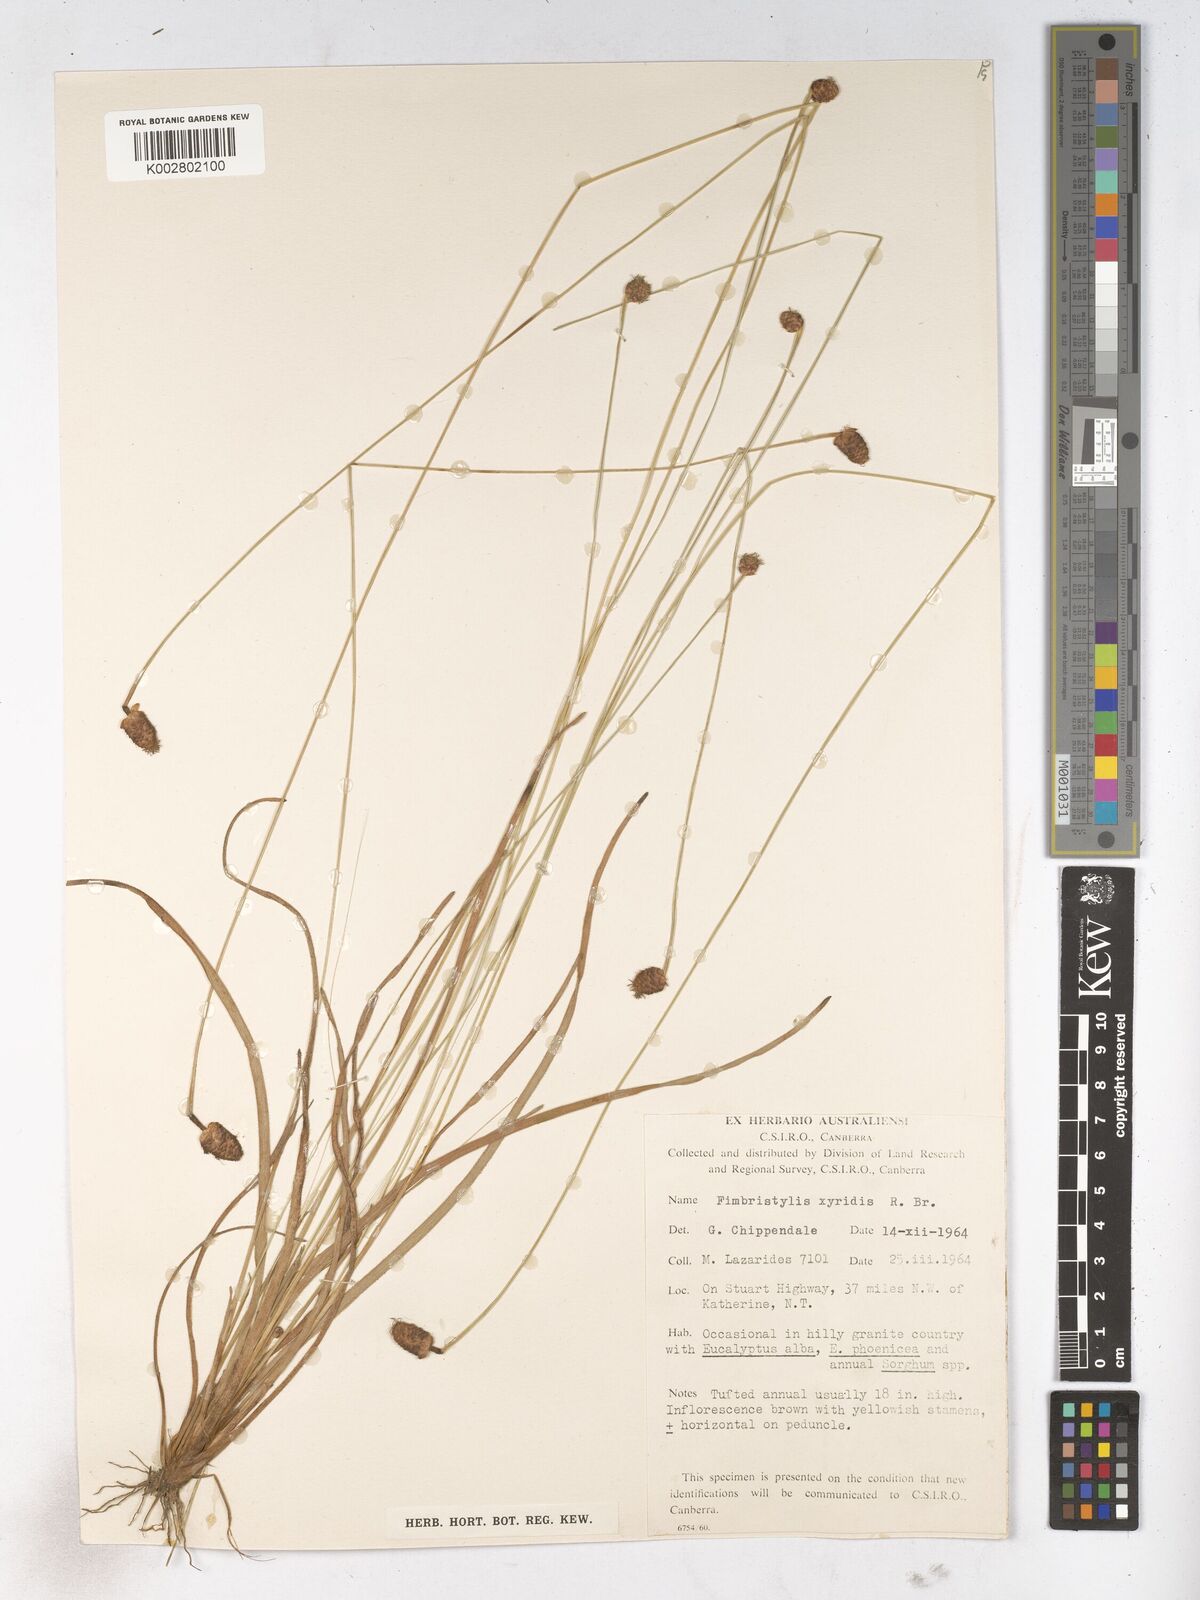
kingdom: Plantae
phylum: Tracheophyta
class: Liliopsida
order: Poales
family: Cyperaceae
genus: Fimbristylis
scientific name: Fimbristylis xyridis
